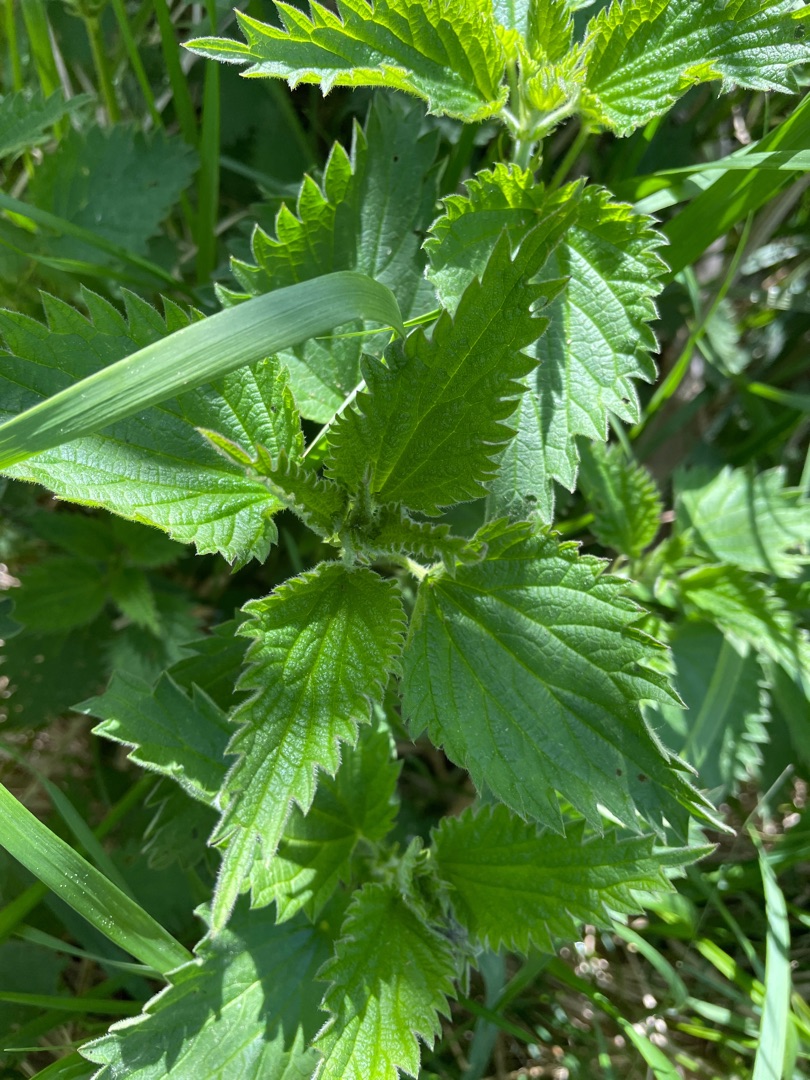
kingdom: Plantae
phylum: Tracheophyta
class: Magnoliopsida
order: Rosales
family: Urticaceae
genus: Urtica
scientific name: Urtica dioica
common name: Stor nælde
